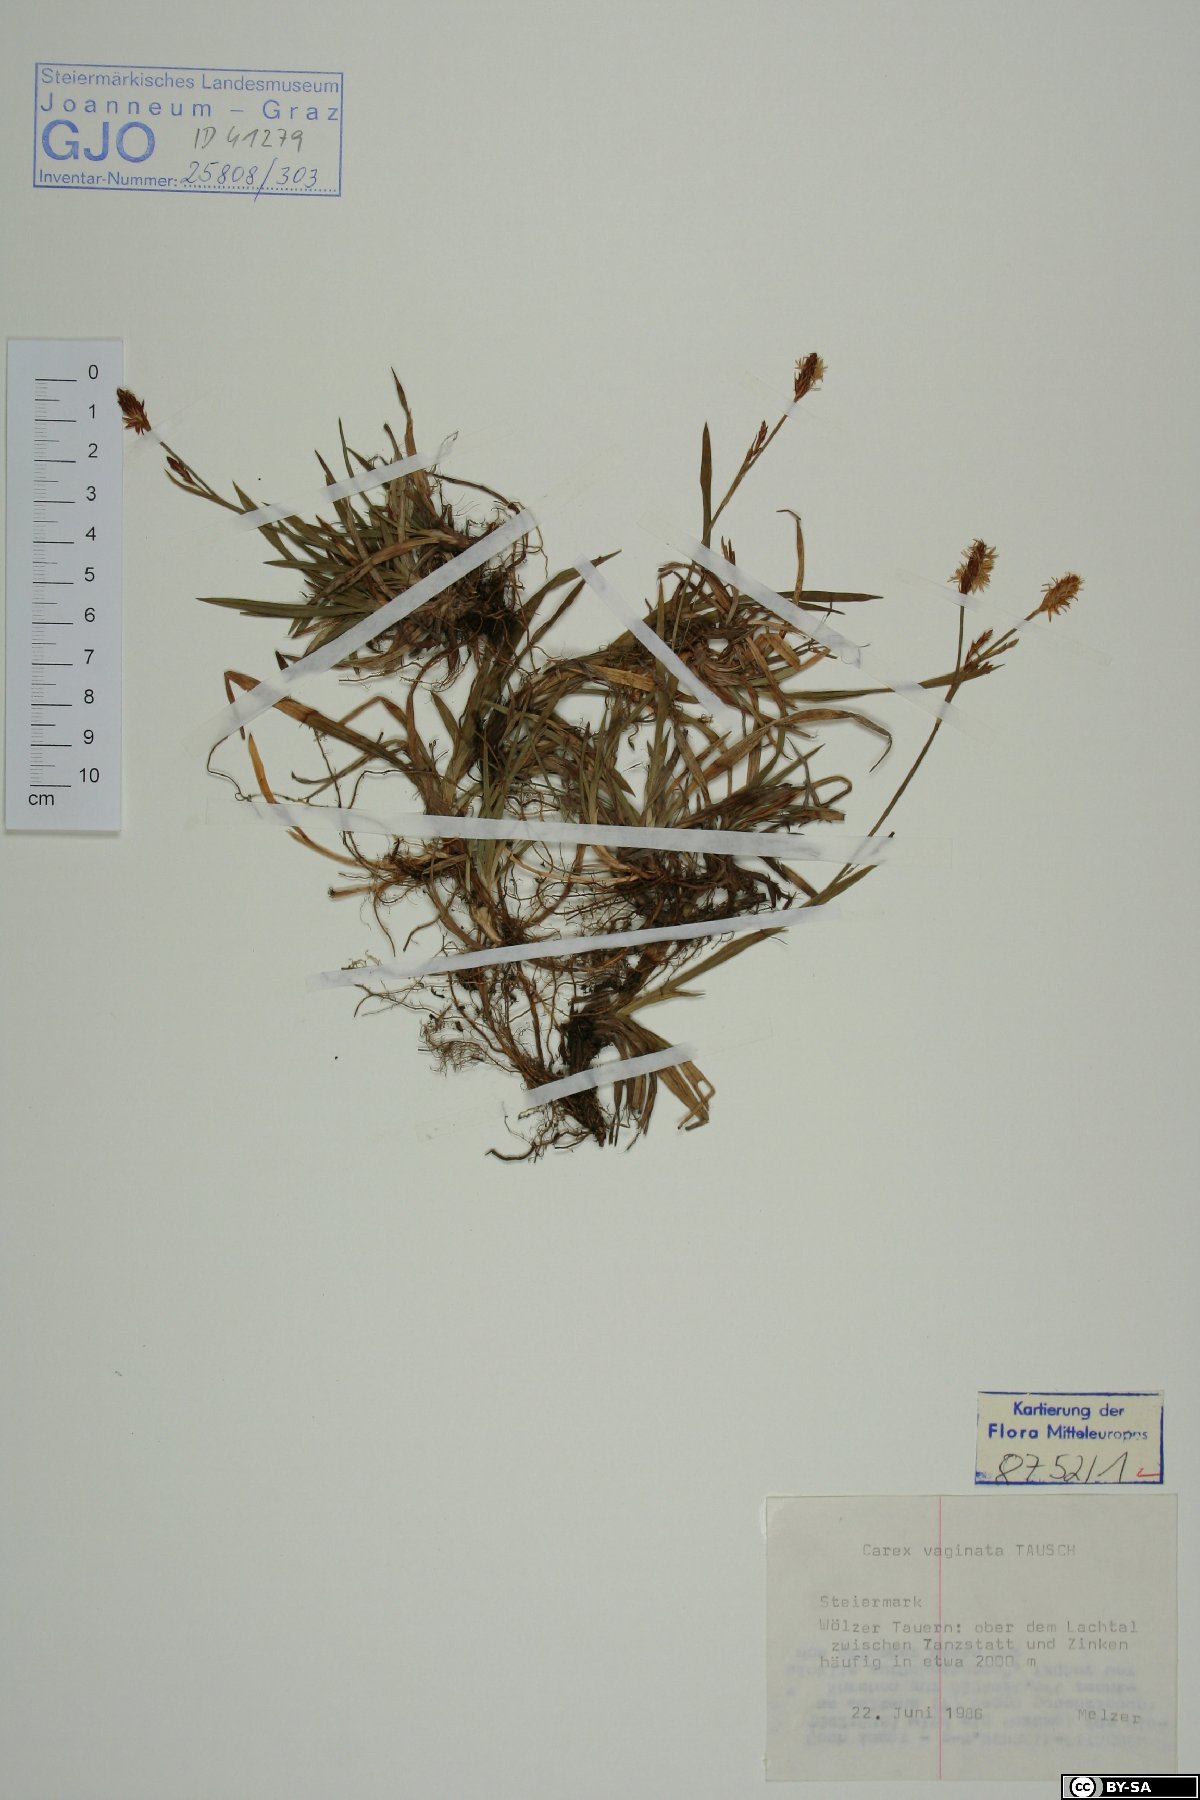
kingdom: Plantae
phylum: Tracheophyta
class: Liliopsida
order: Poales
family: Cyperaceae
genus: Carex
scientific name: Carex vaginata
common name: Sheathed sedge
